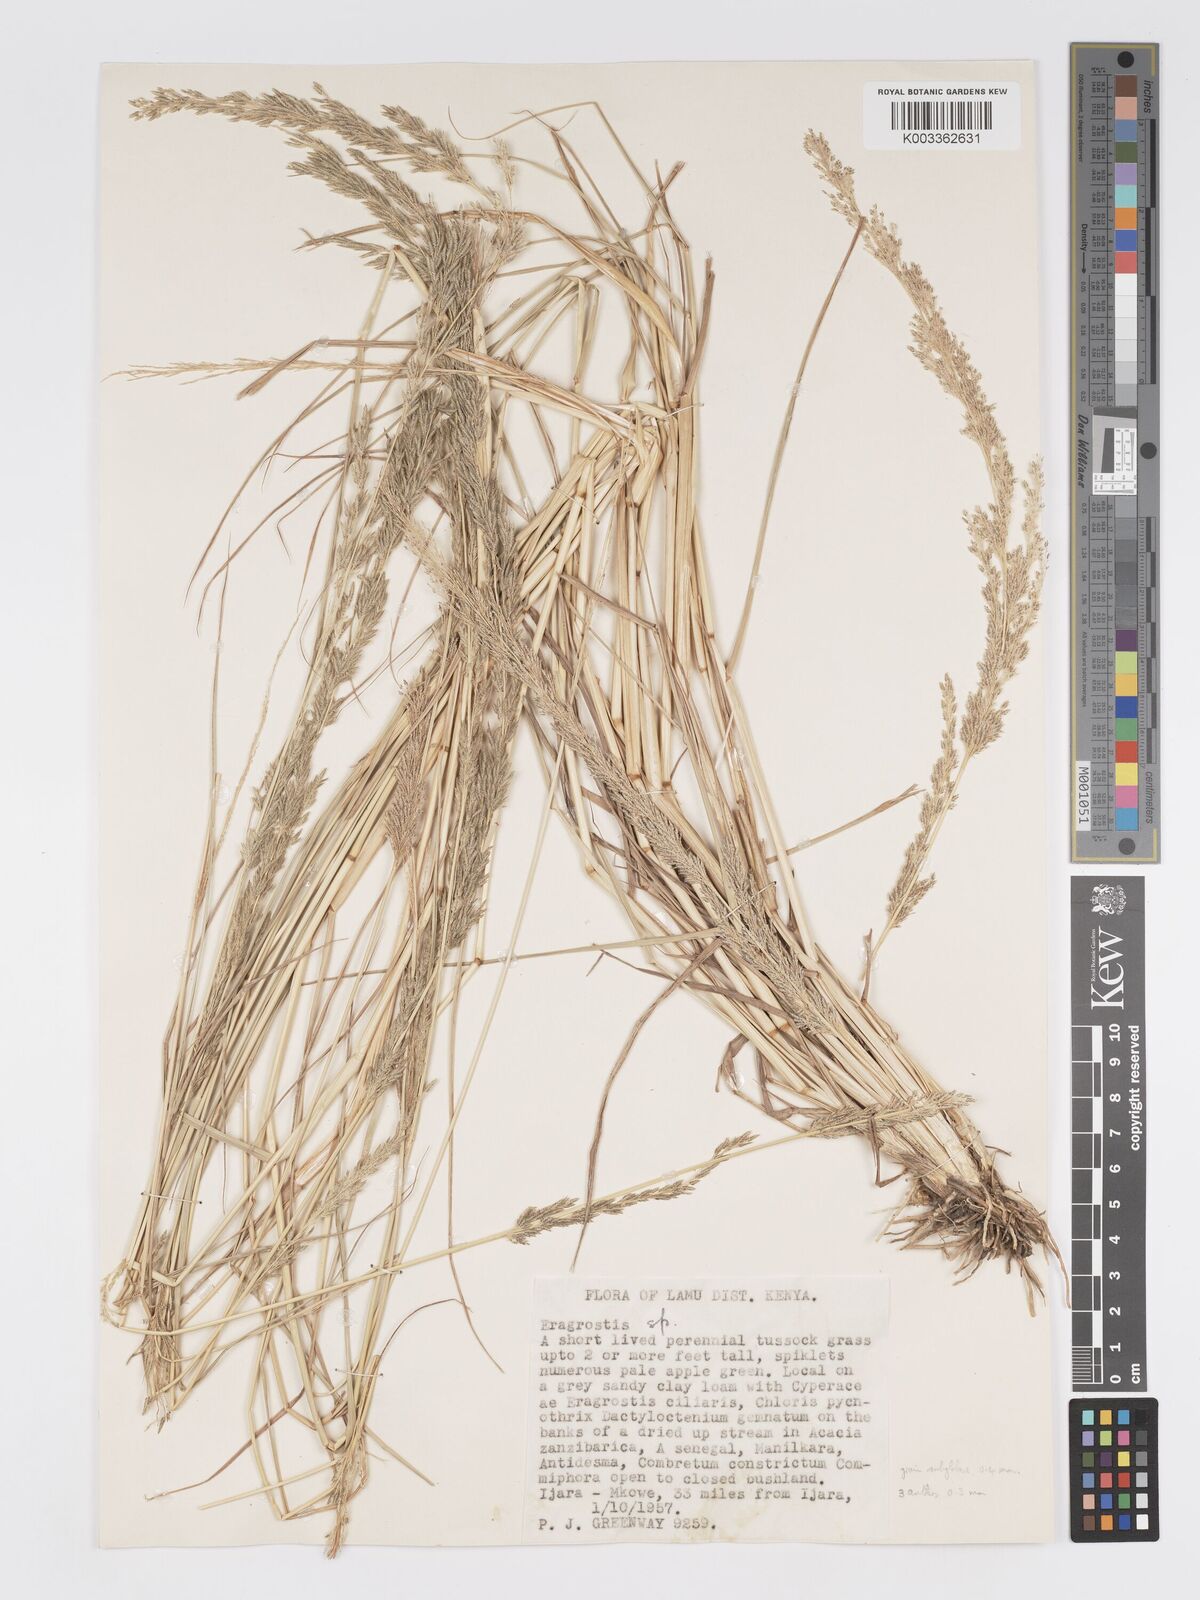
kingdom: Plantae
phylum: Tracheophyta
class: Liliopsida
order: Poales
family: Poaceae
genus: Eragrostis
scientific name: Eragrostis prolifera
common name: Dominican lovegrass
